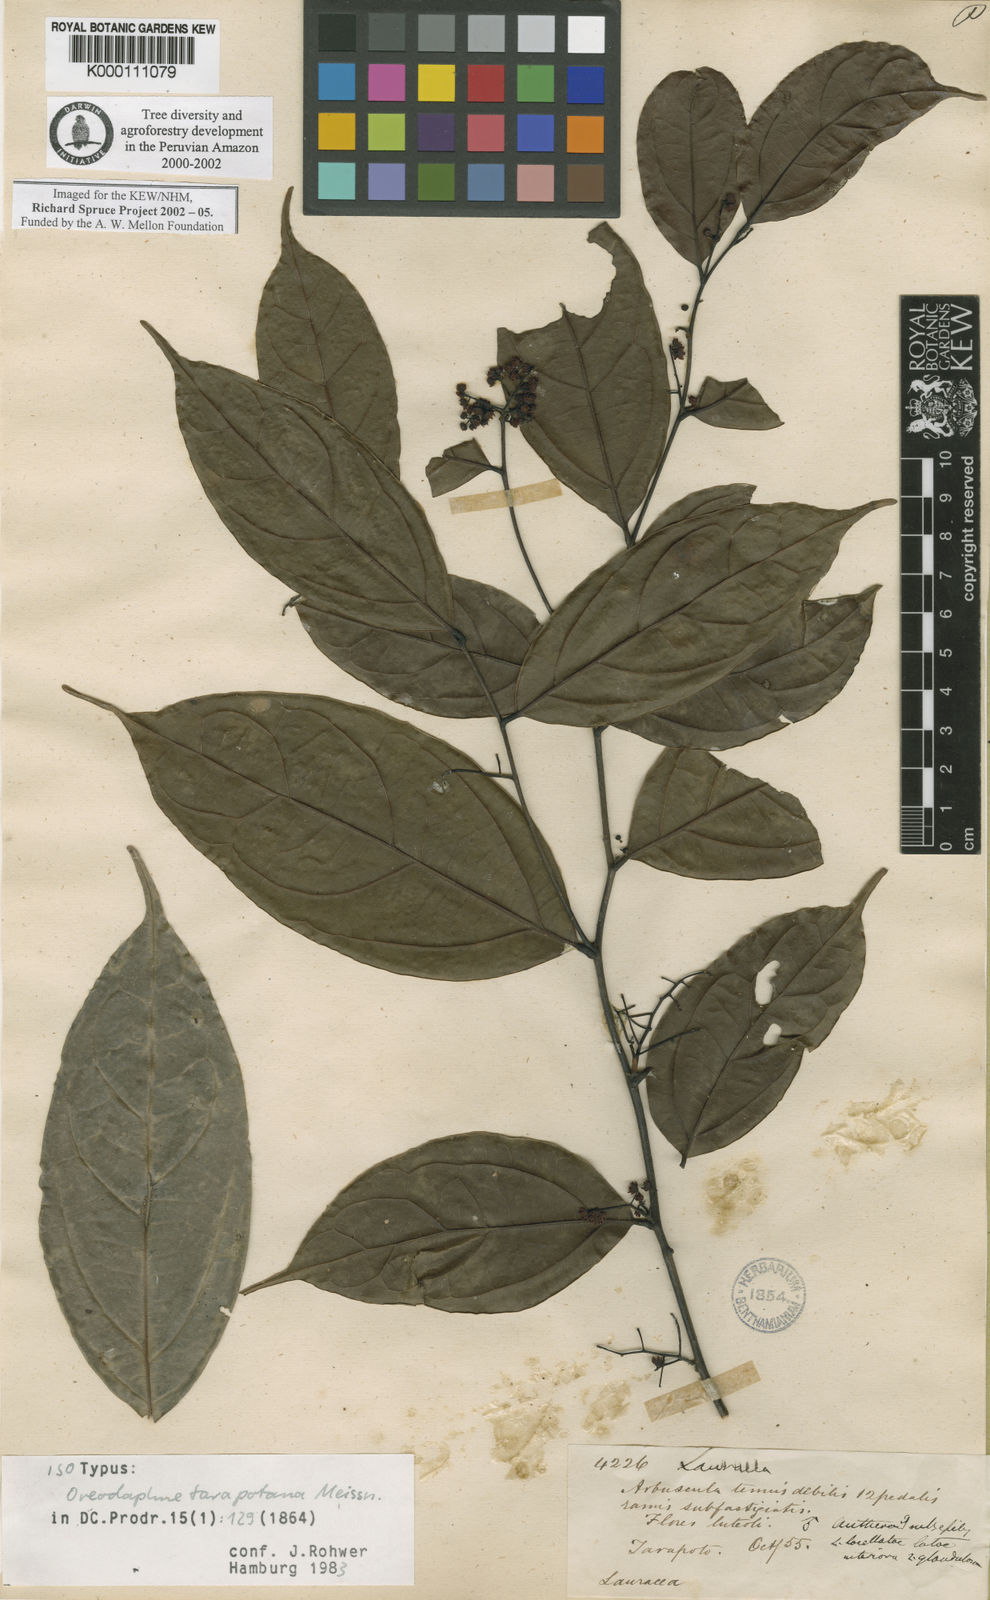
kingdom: Plantae
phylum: Tracheophyta
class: Magnoliopsida
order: Laurales
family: Lauraceae
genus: Ocotea
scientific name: Ocotea tarapotana
